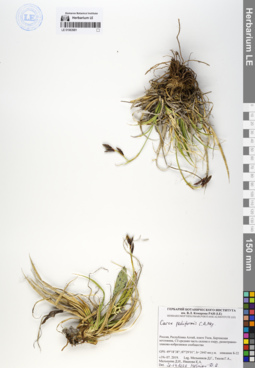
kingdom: Plantae
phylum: Tracheophyta
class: Liliopsida
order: Poales
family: Cyperaceae
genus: Carex
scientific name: Carex pediformis
